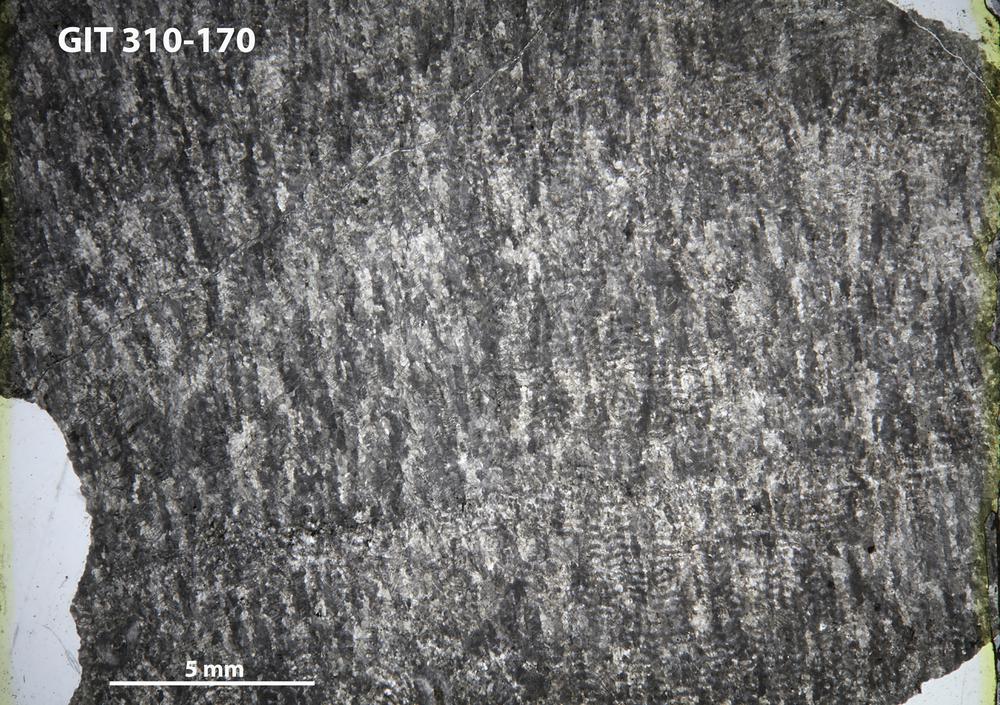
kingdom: Animalia
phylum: Porifera
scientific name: Porifera
